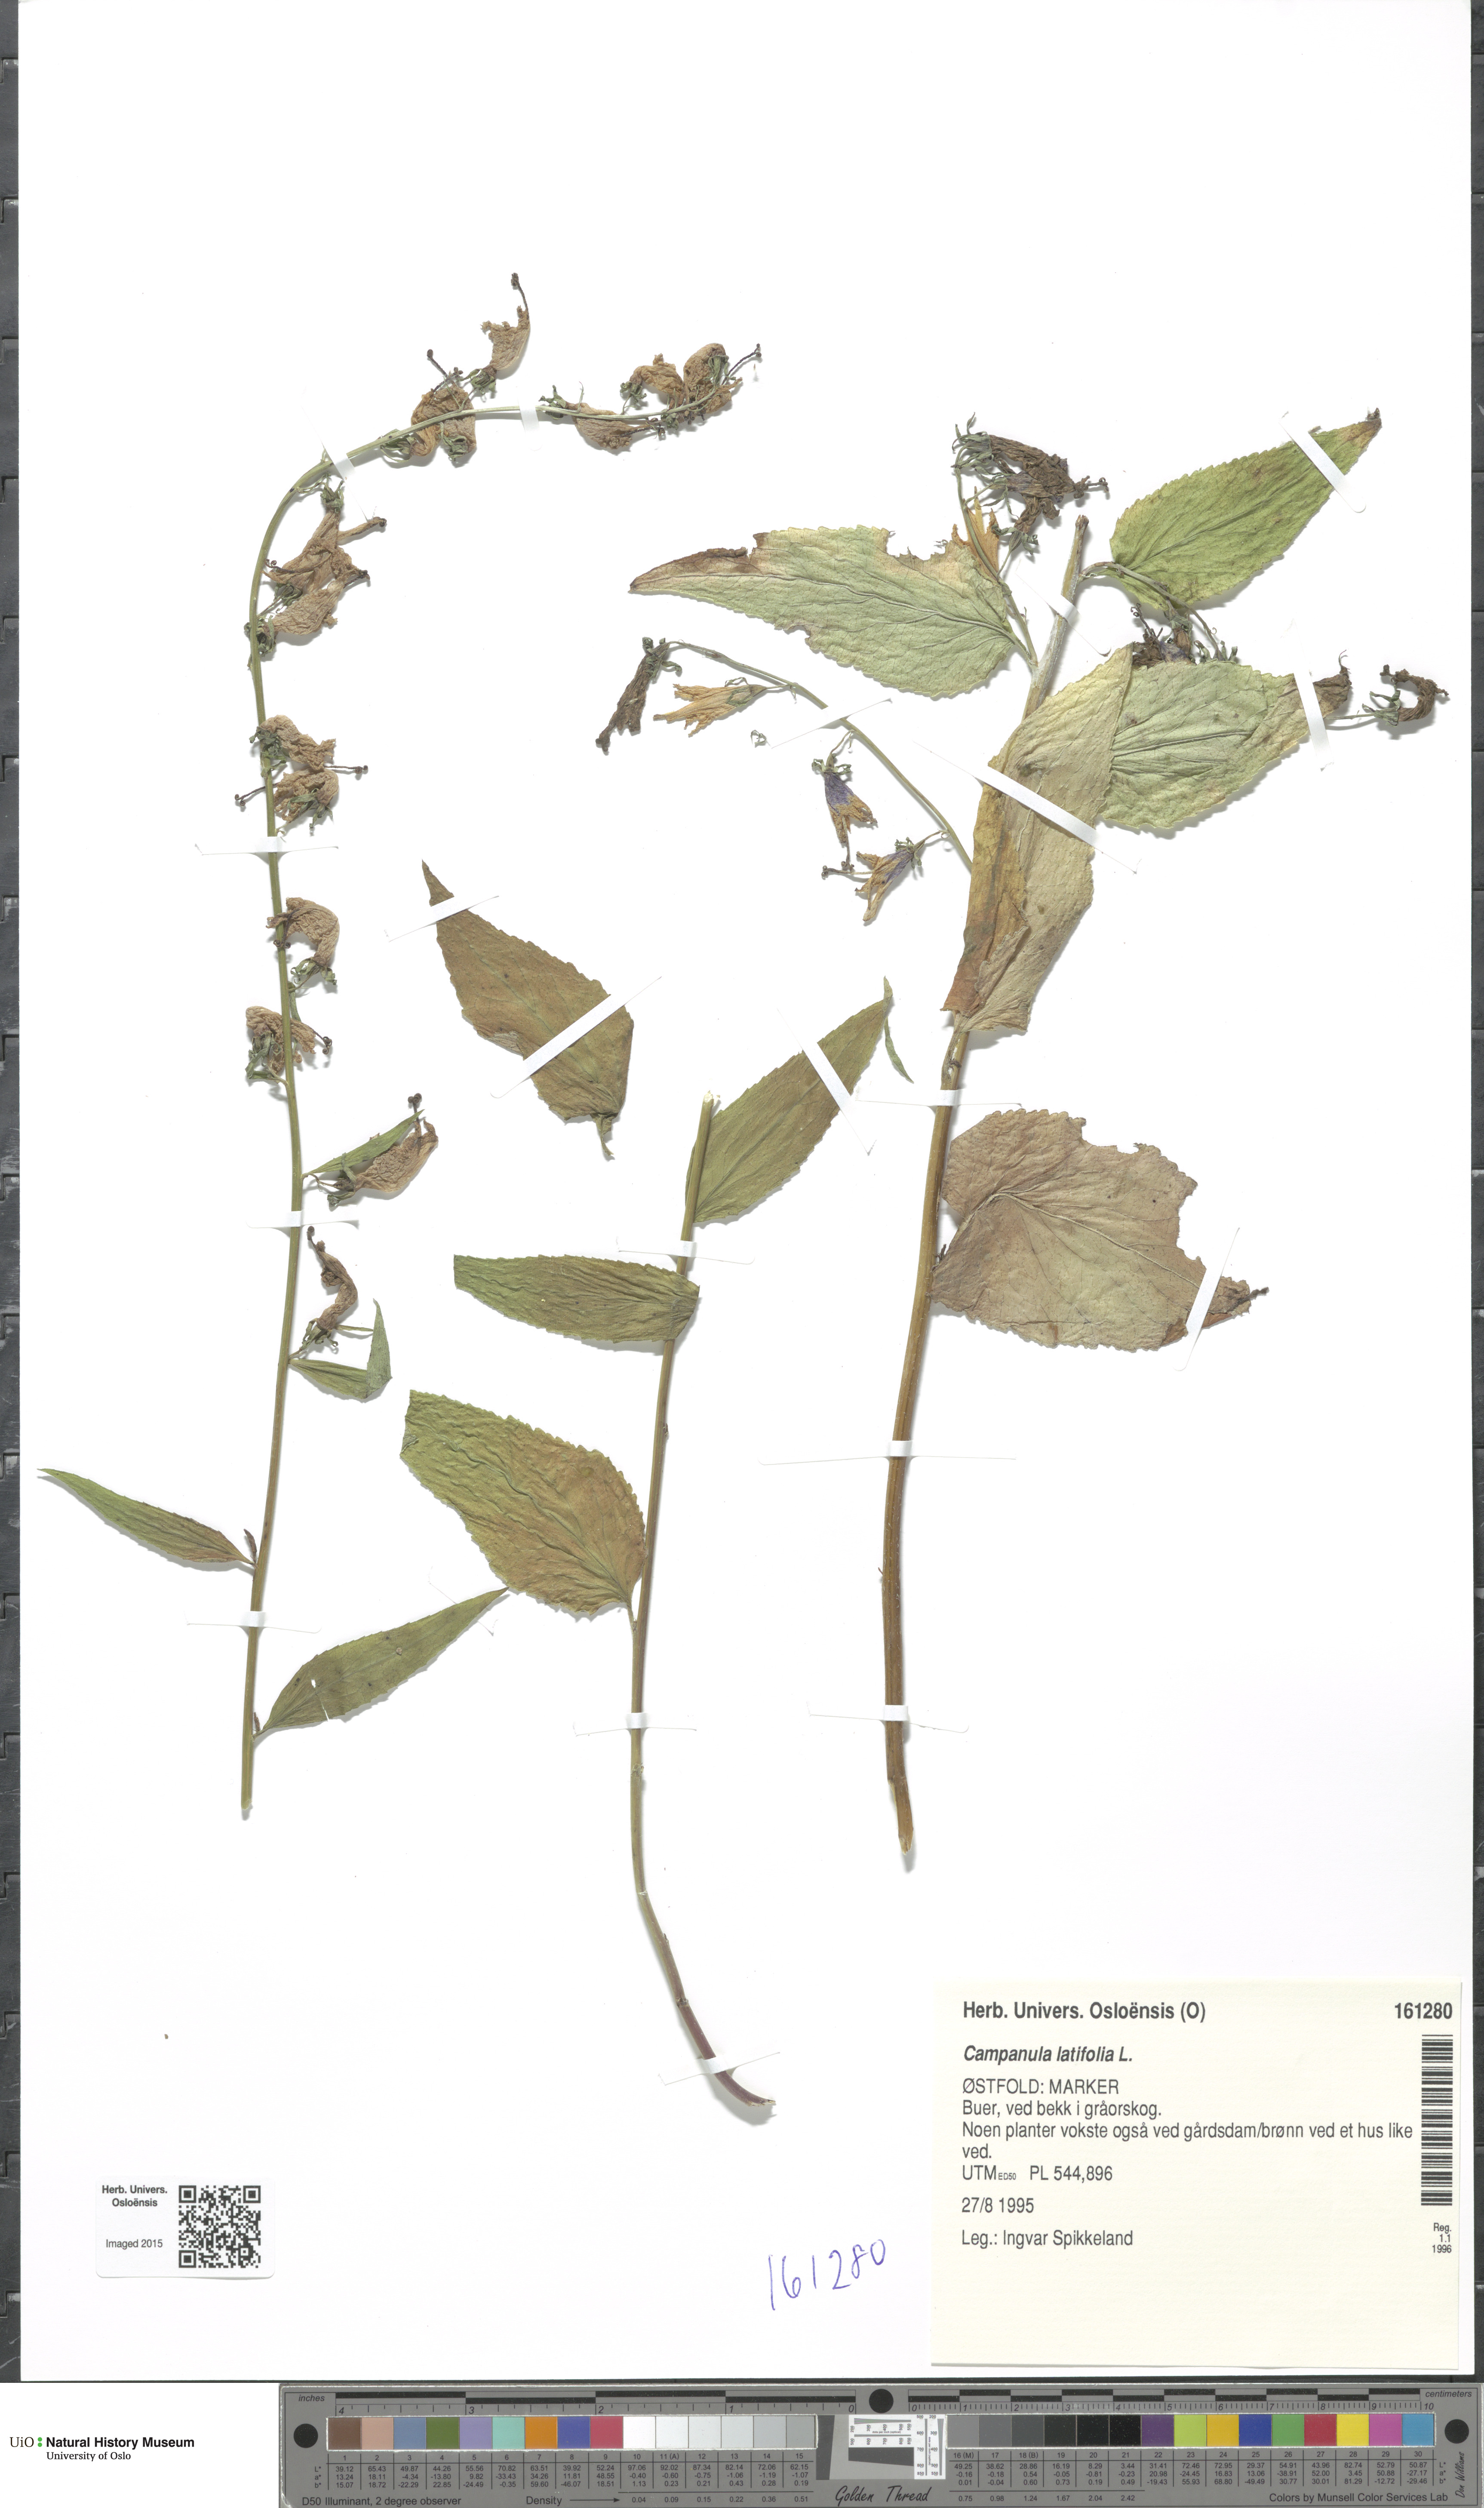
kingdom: Plantae
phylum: Tracheophyta
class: Magnoliopsida
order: Asterales
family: Campanulaceae
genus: Campanula
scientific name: Campanula latifolia
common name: Giant bellflower
